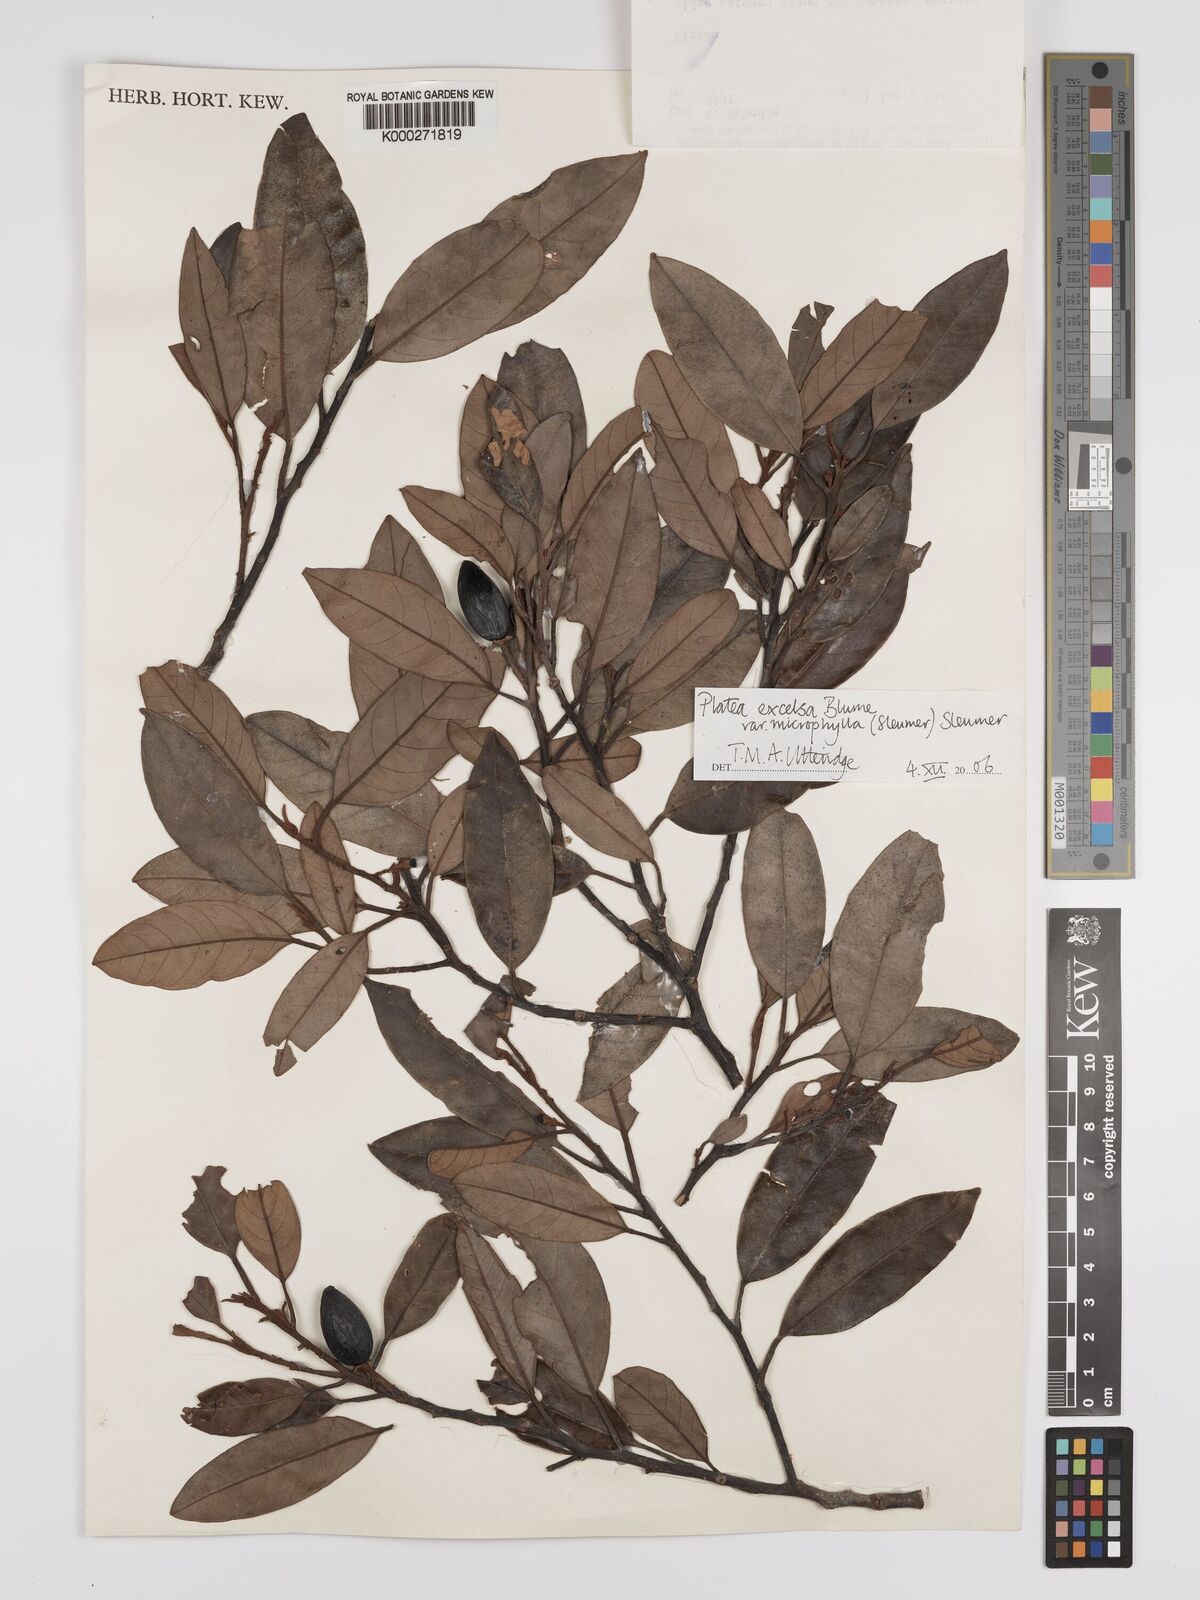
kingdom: Plantae
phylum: Tracheophyta
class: Magnoliopsida
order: Metteniusales
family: Metteniusaceae
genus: Platea
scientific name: Platea excelsa
